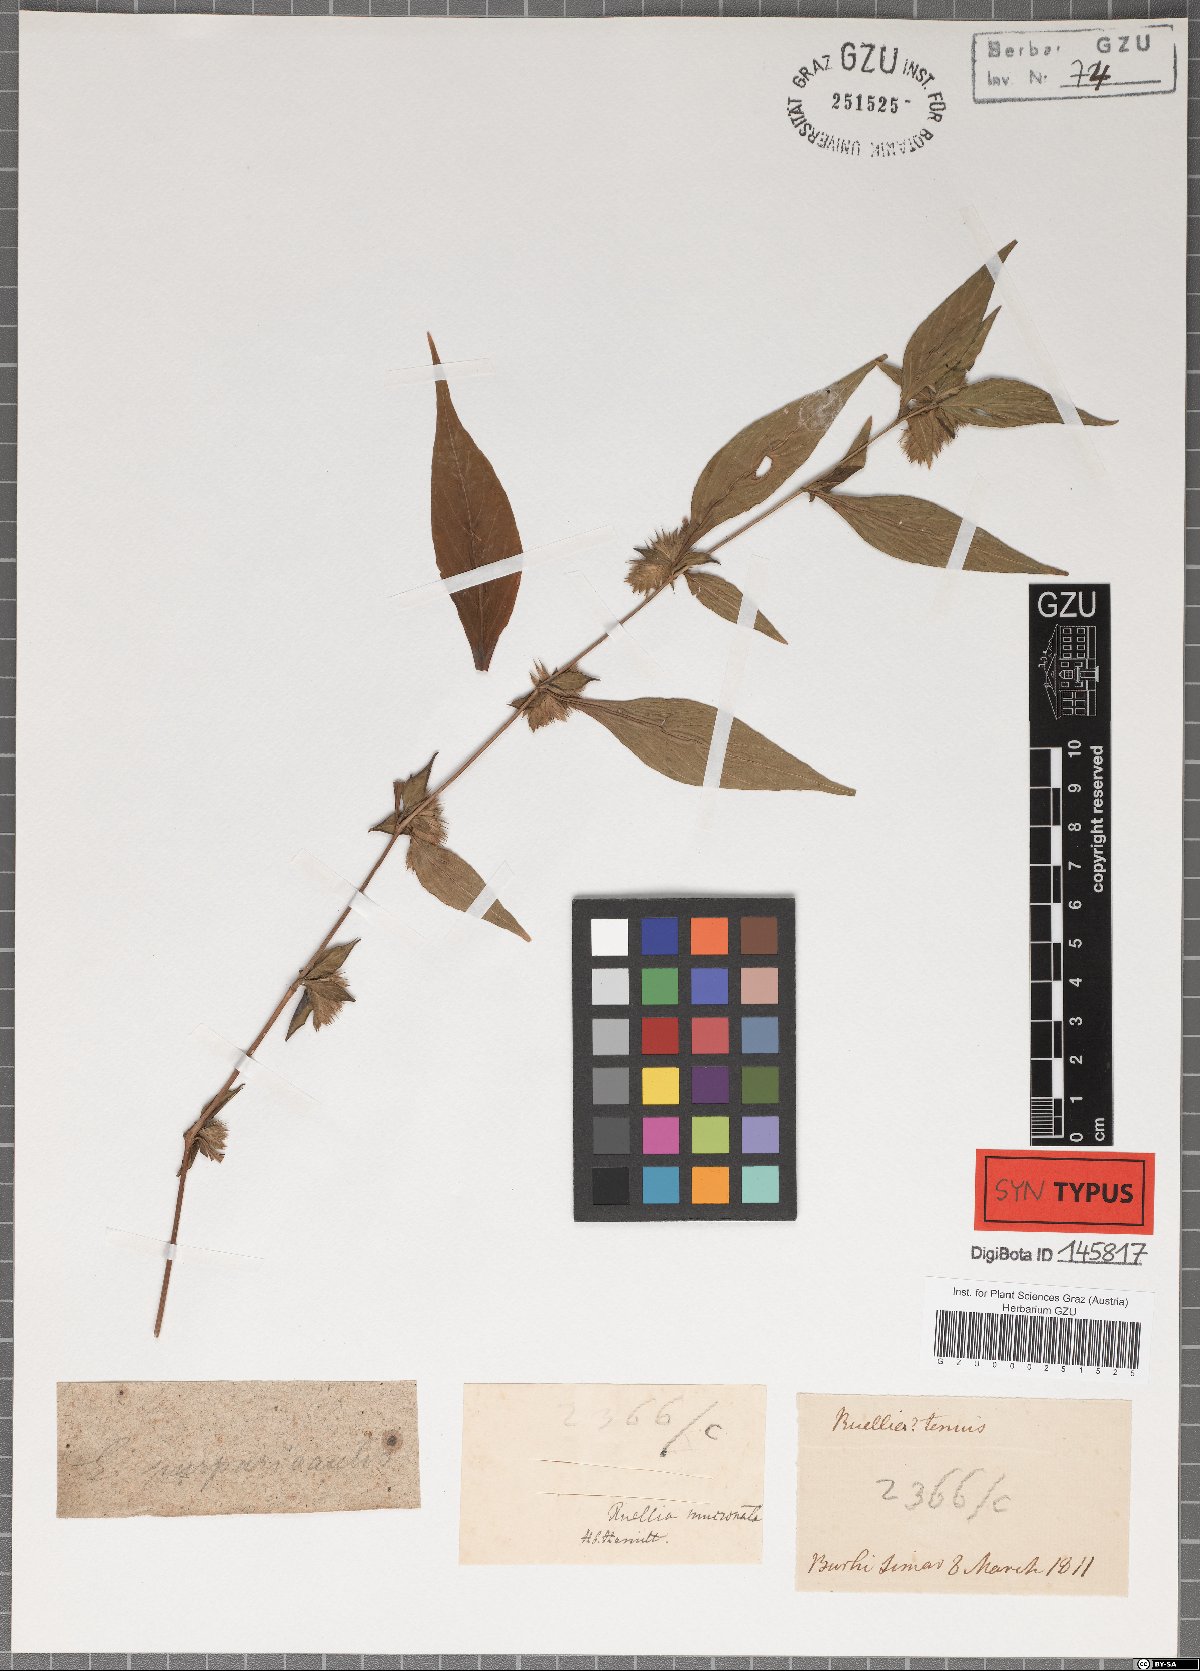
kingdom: Plantae
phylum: Tracheophyta
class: Magnoliopsida
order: Lamiales
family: Acanthaceae
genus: Lepidagathis
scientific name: Lepidagathis purpuricaulis
